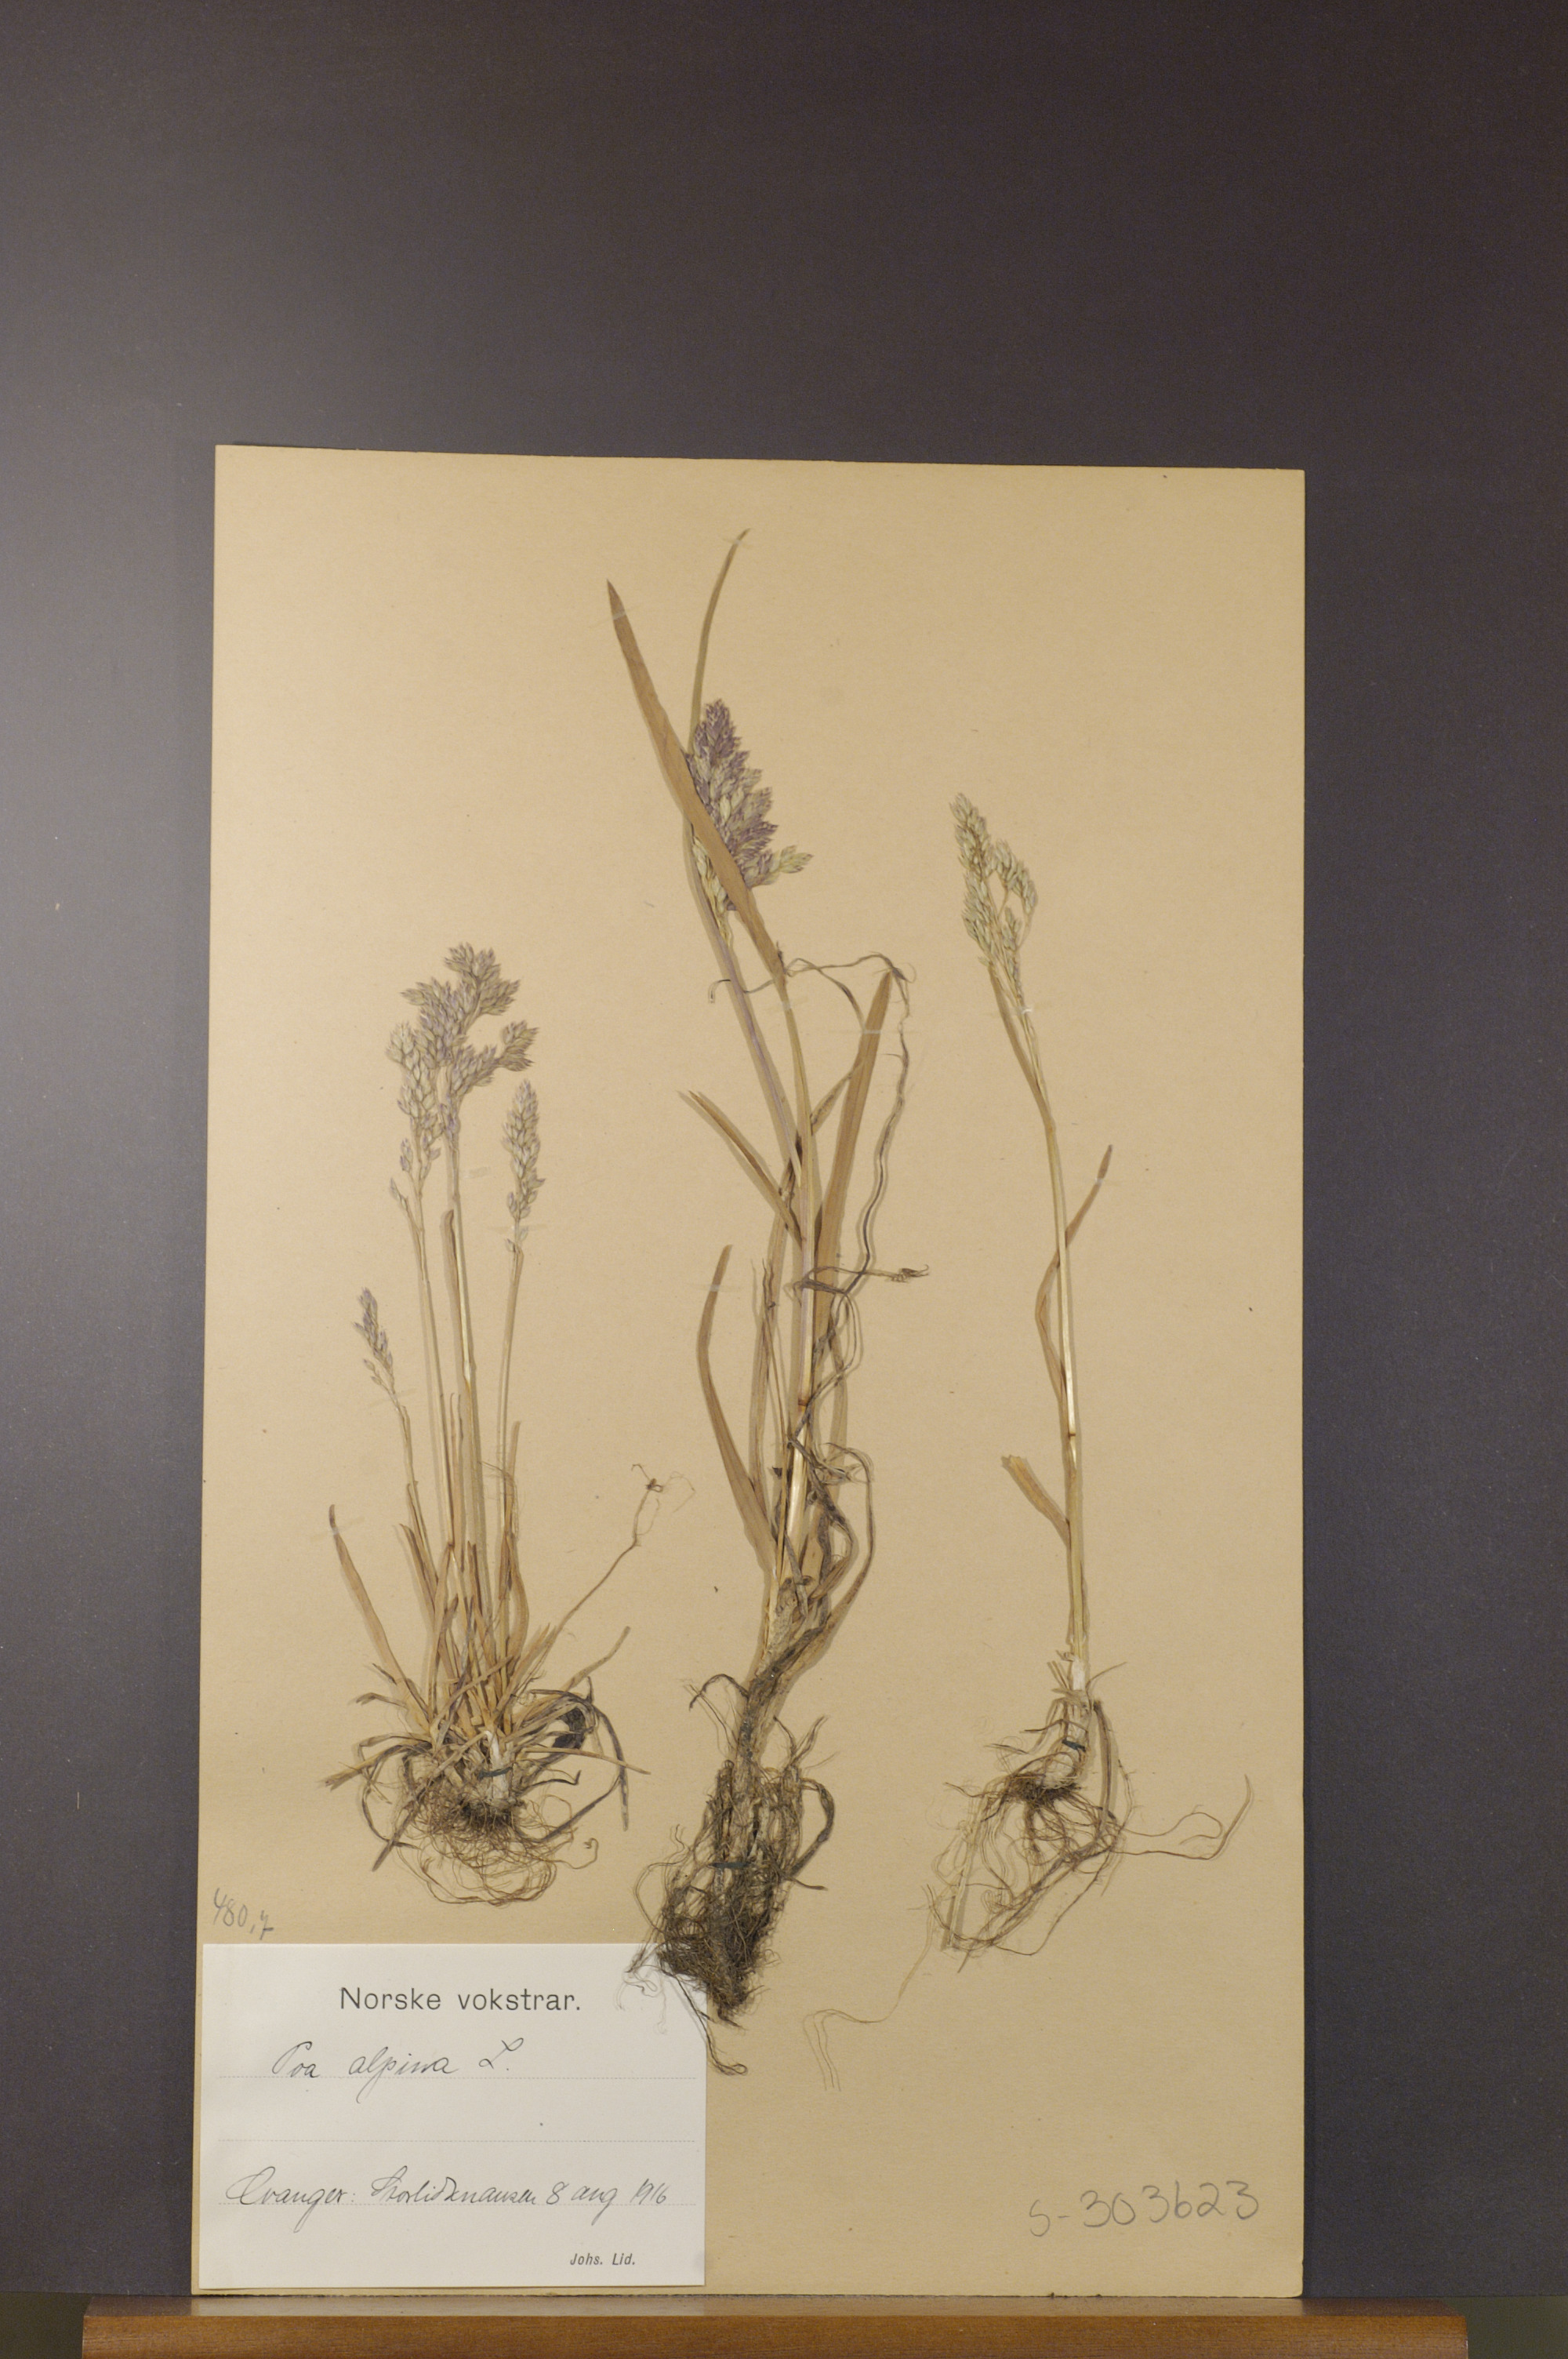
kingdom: Plantae
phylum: Tracheophyta
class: Liliopsida
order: Poales
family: Poaceae
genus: Poa
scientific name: Poa alpina
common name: Alpine bluegrass
